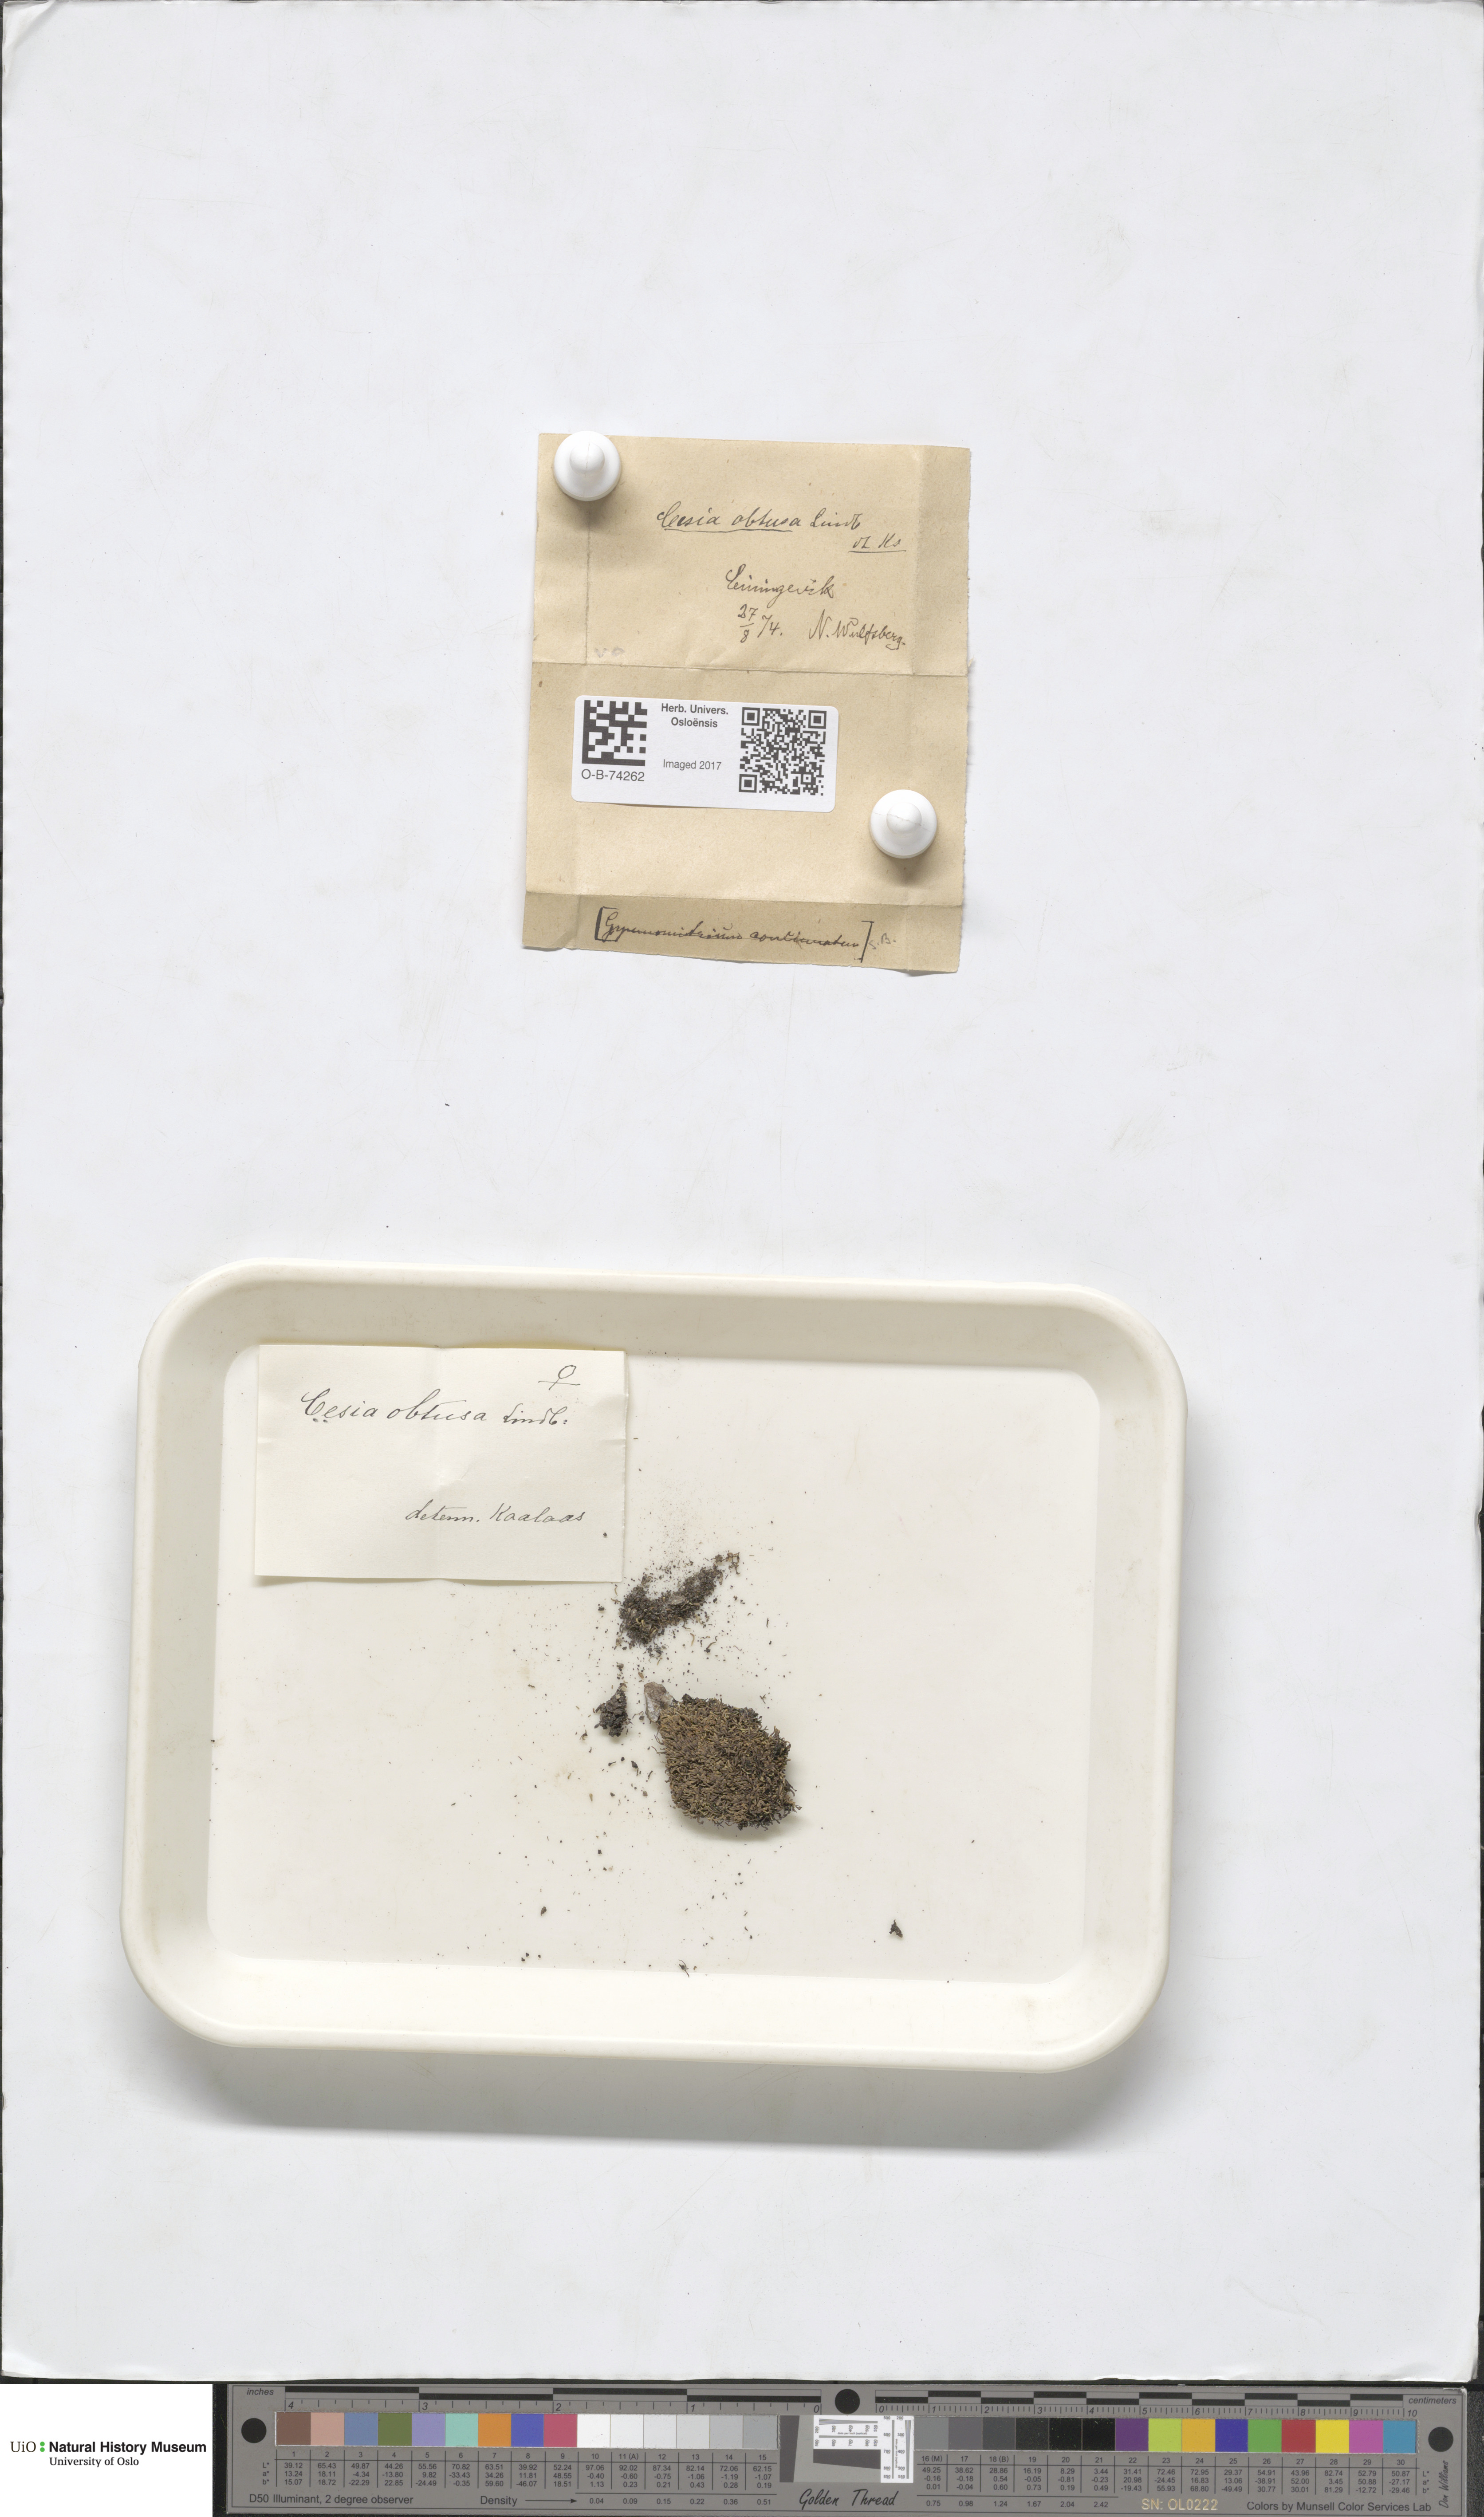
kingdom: Plantae
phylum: Marchantiophyta
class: Jungermanniopsida
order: Jungermanniales
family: Gymnomitriaceae
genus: Gymnomitrion
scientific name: Gymnomitrion obtusum
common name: White frostwort
